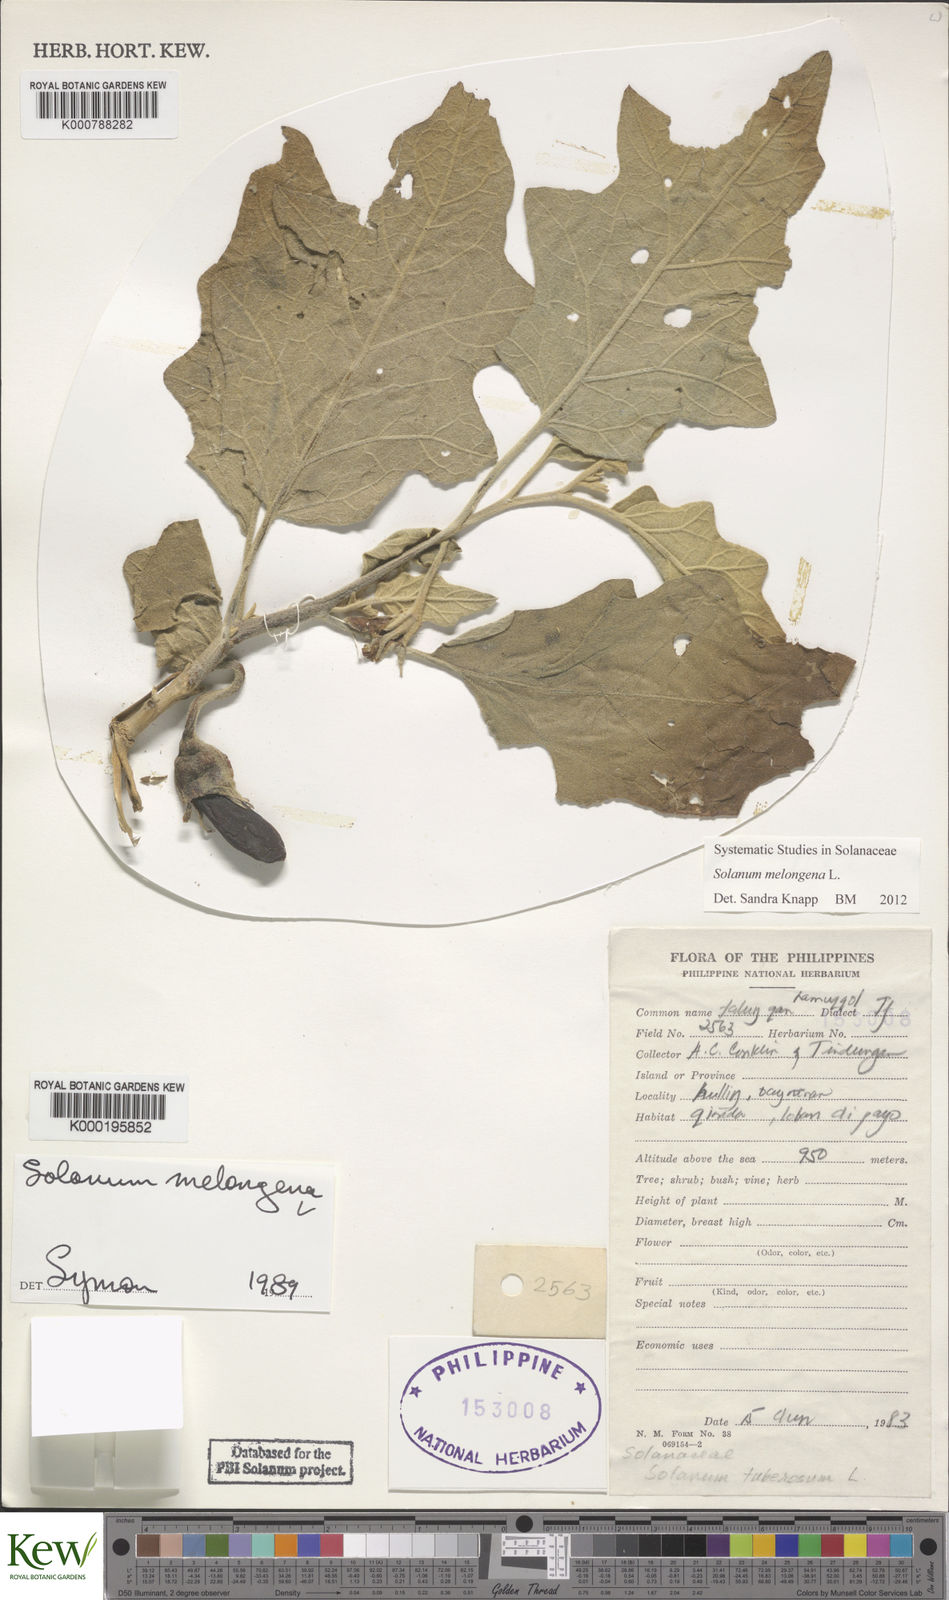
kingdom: Plantae
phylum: Tracheophyta
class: Magnoliopsida
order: Solanales
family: Solanaceae
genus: Solanum
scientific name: Solanum melongena
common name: Eggplant
